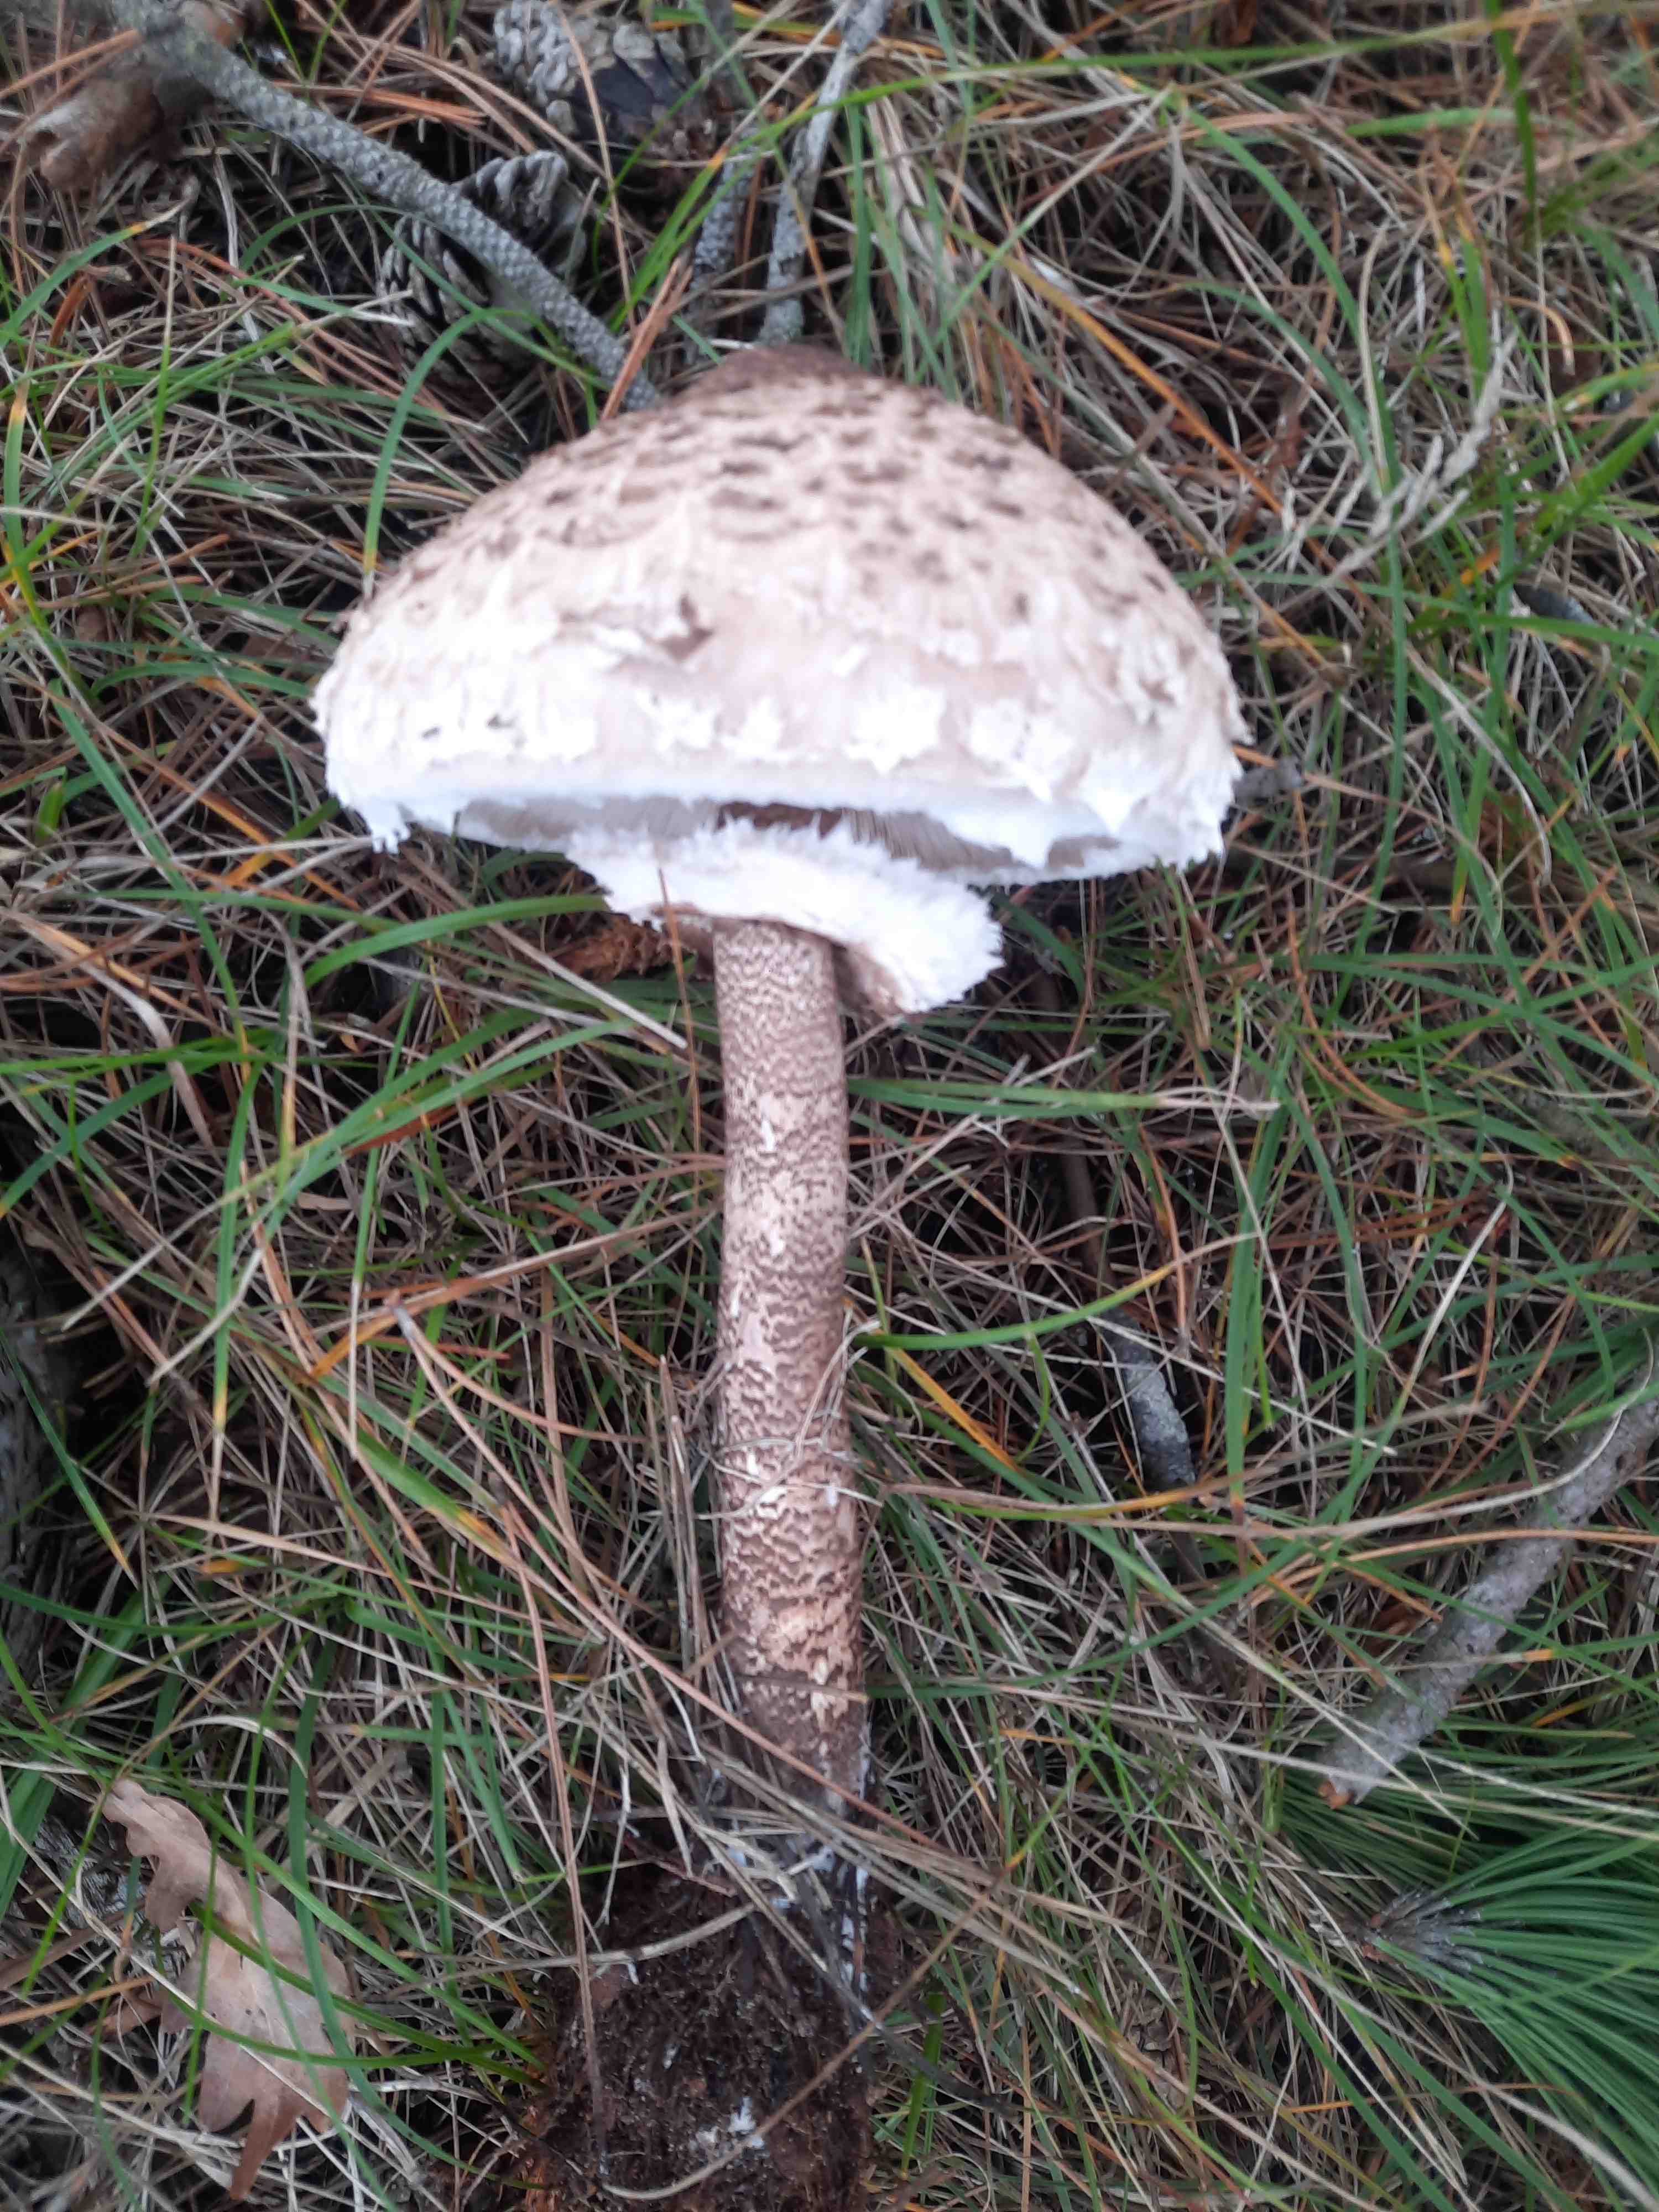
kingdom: Fungi
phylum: Basidiomycota
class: Agaricomycetes
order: Agaricales
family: Agaricaceae
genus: Macrolepiota
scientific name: Macrolepiota procera
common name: stor kæmpeparasolhat
